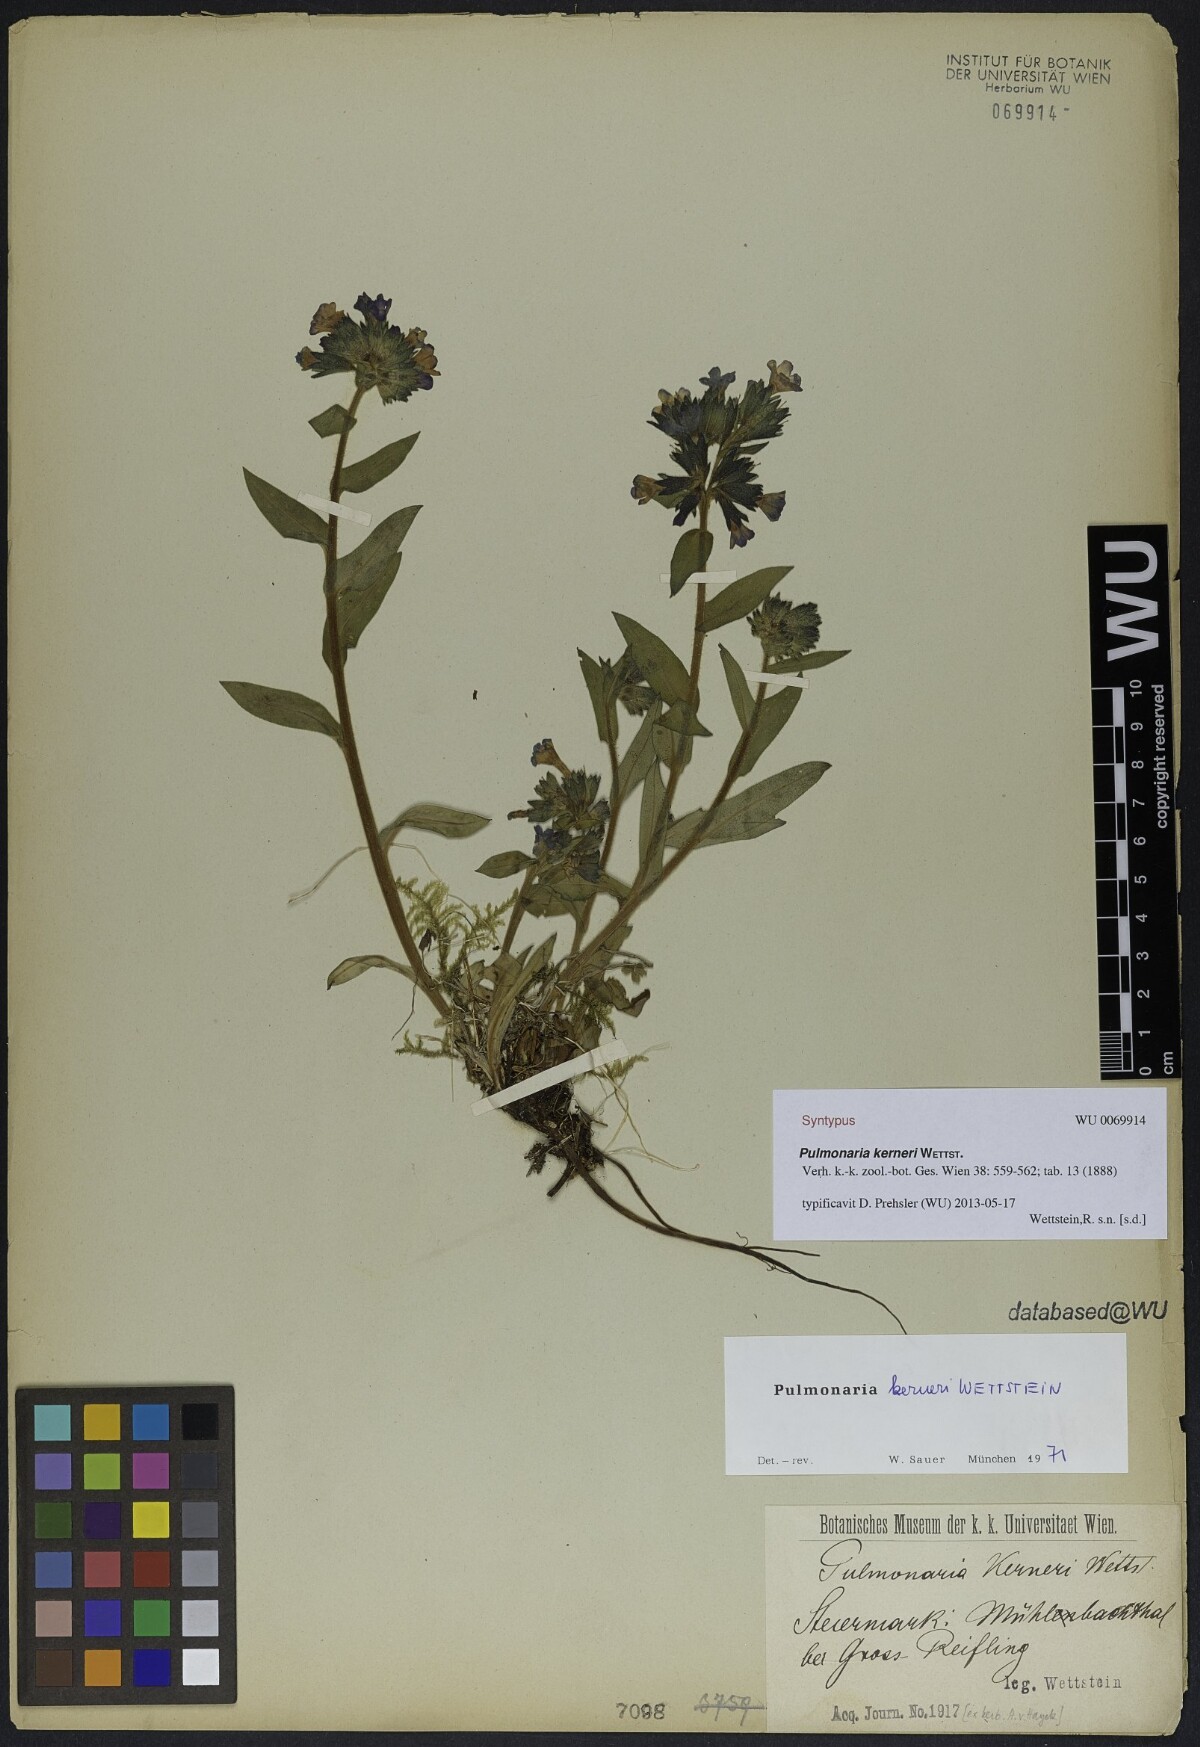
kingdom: Plantae
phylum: Tracheophyta
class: Magnoliopsida
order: Boraginales
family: Boraginaceae
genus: Pulmonaria
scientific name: Pulmonaria kerneri
